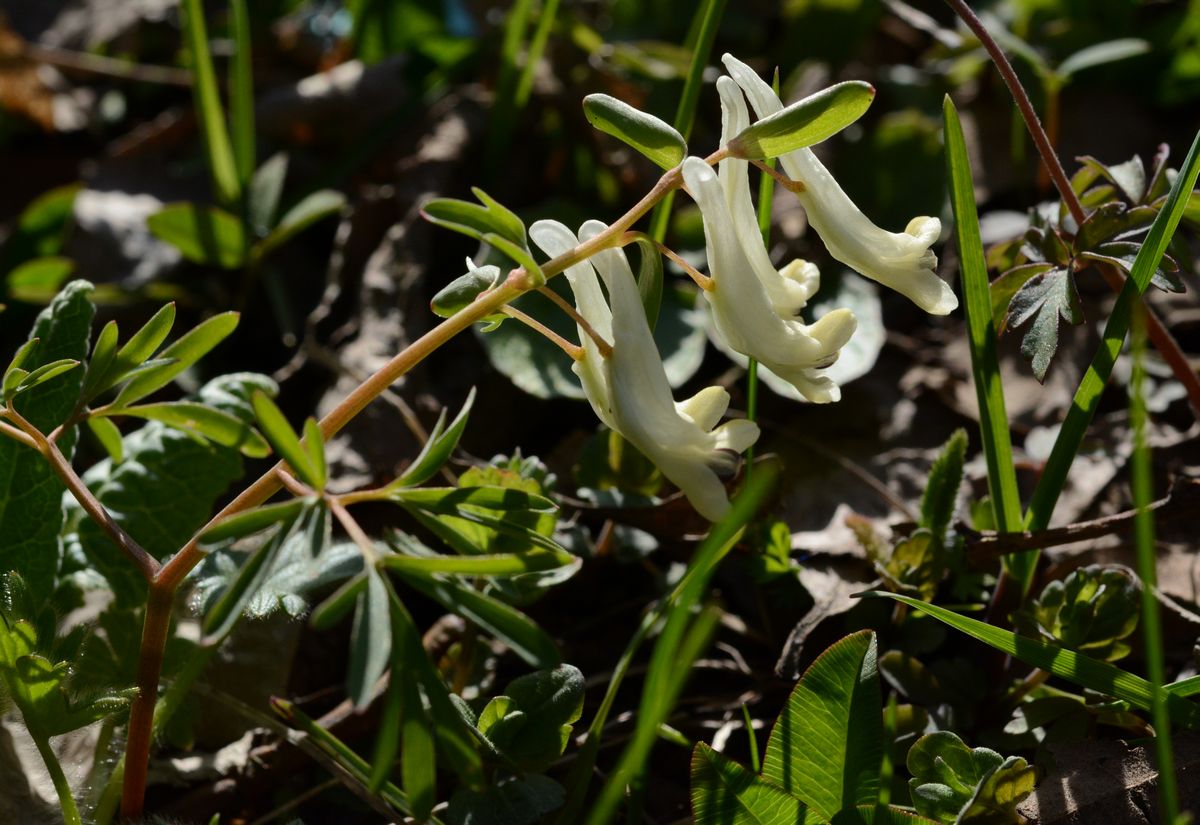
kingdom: Plantae
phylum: Tracheophyta
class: Magnoliopsida
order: Ranunculales
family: Papaveraceae
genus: Corydalis
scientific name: Corydalis angustifolia
